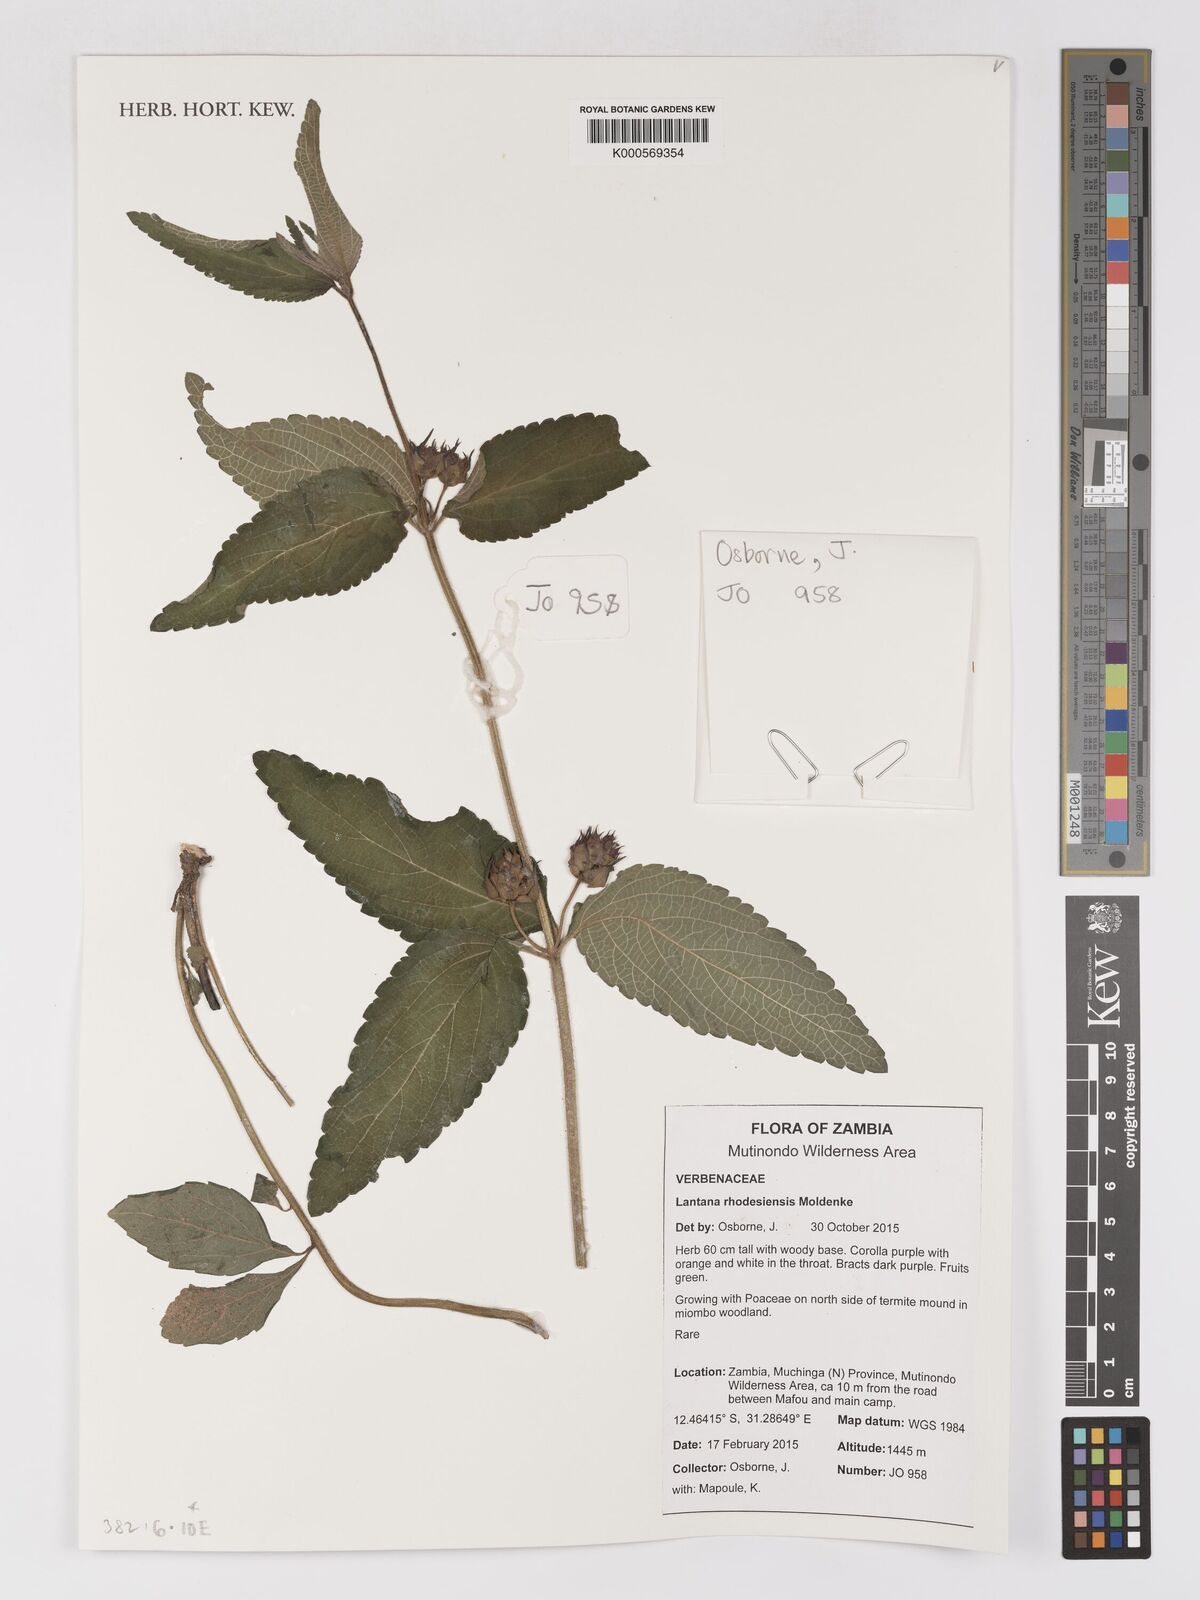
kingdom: Plantae
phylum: Tracheophyta
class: Magnoliopsida
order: Lamiales
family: Verbenaceae
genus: Lantana
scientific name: Lantana ukambensis
